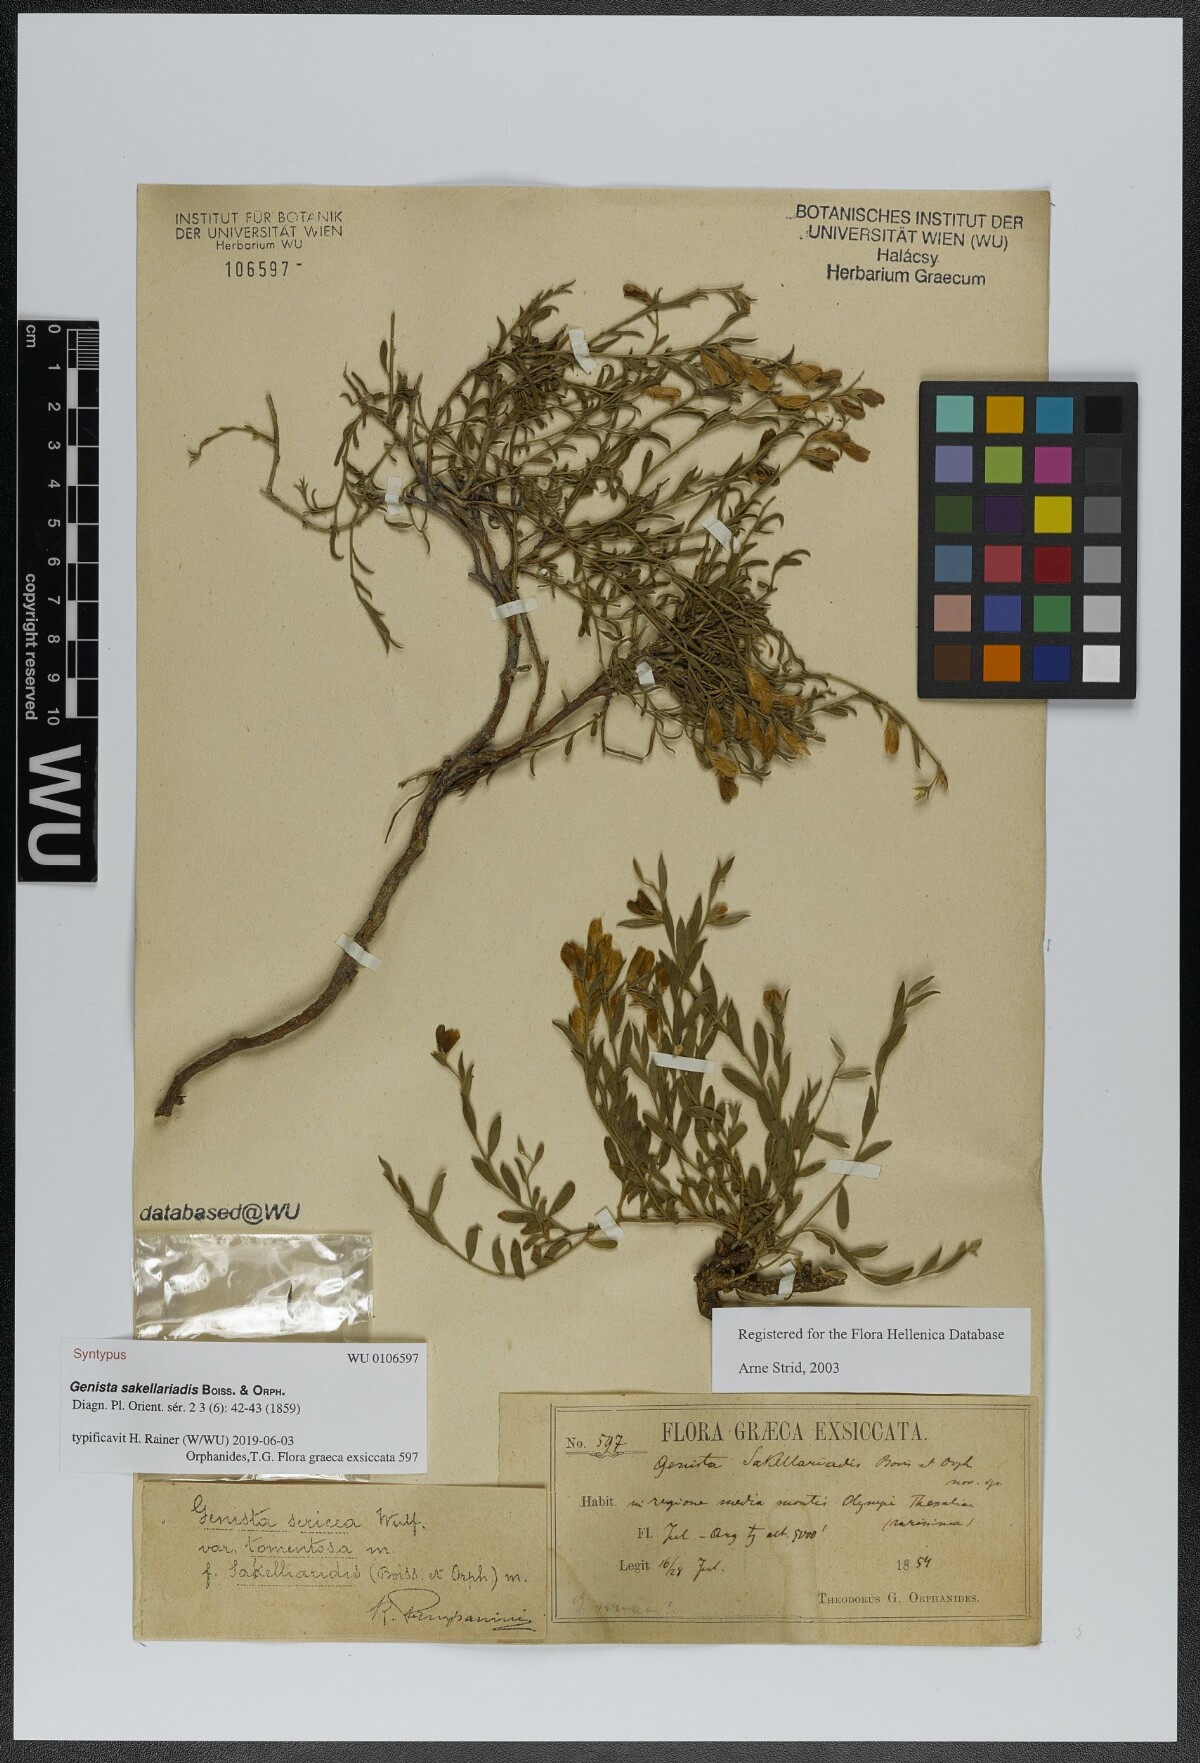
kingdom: Plantae
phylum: Tracheophyta
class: Magnoliopsida
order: Fabales
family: Fabaceae
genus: Genista
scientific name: Genista sakellariadis
